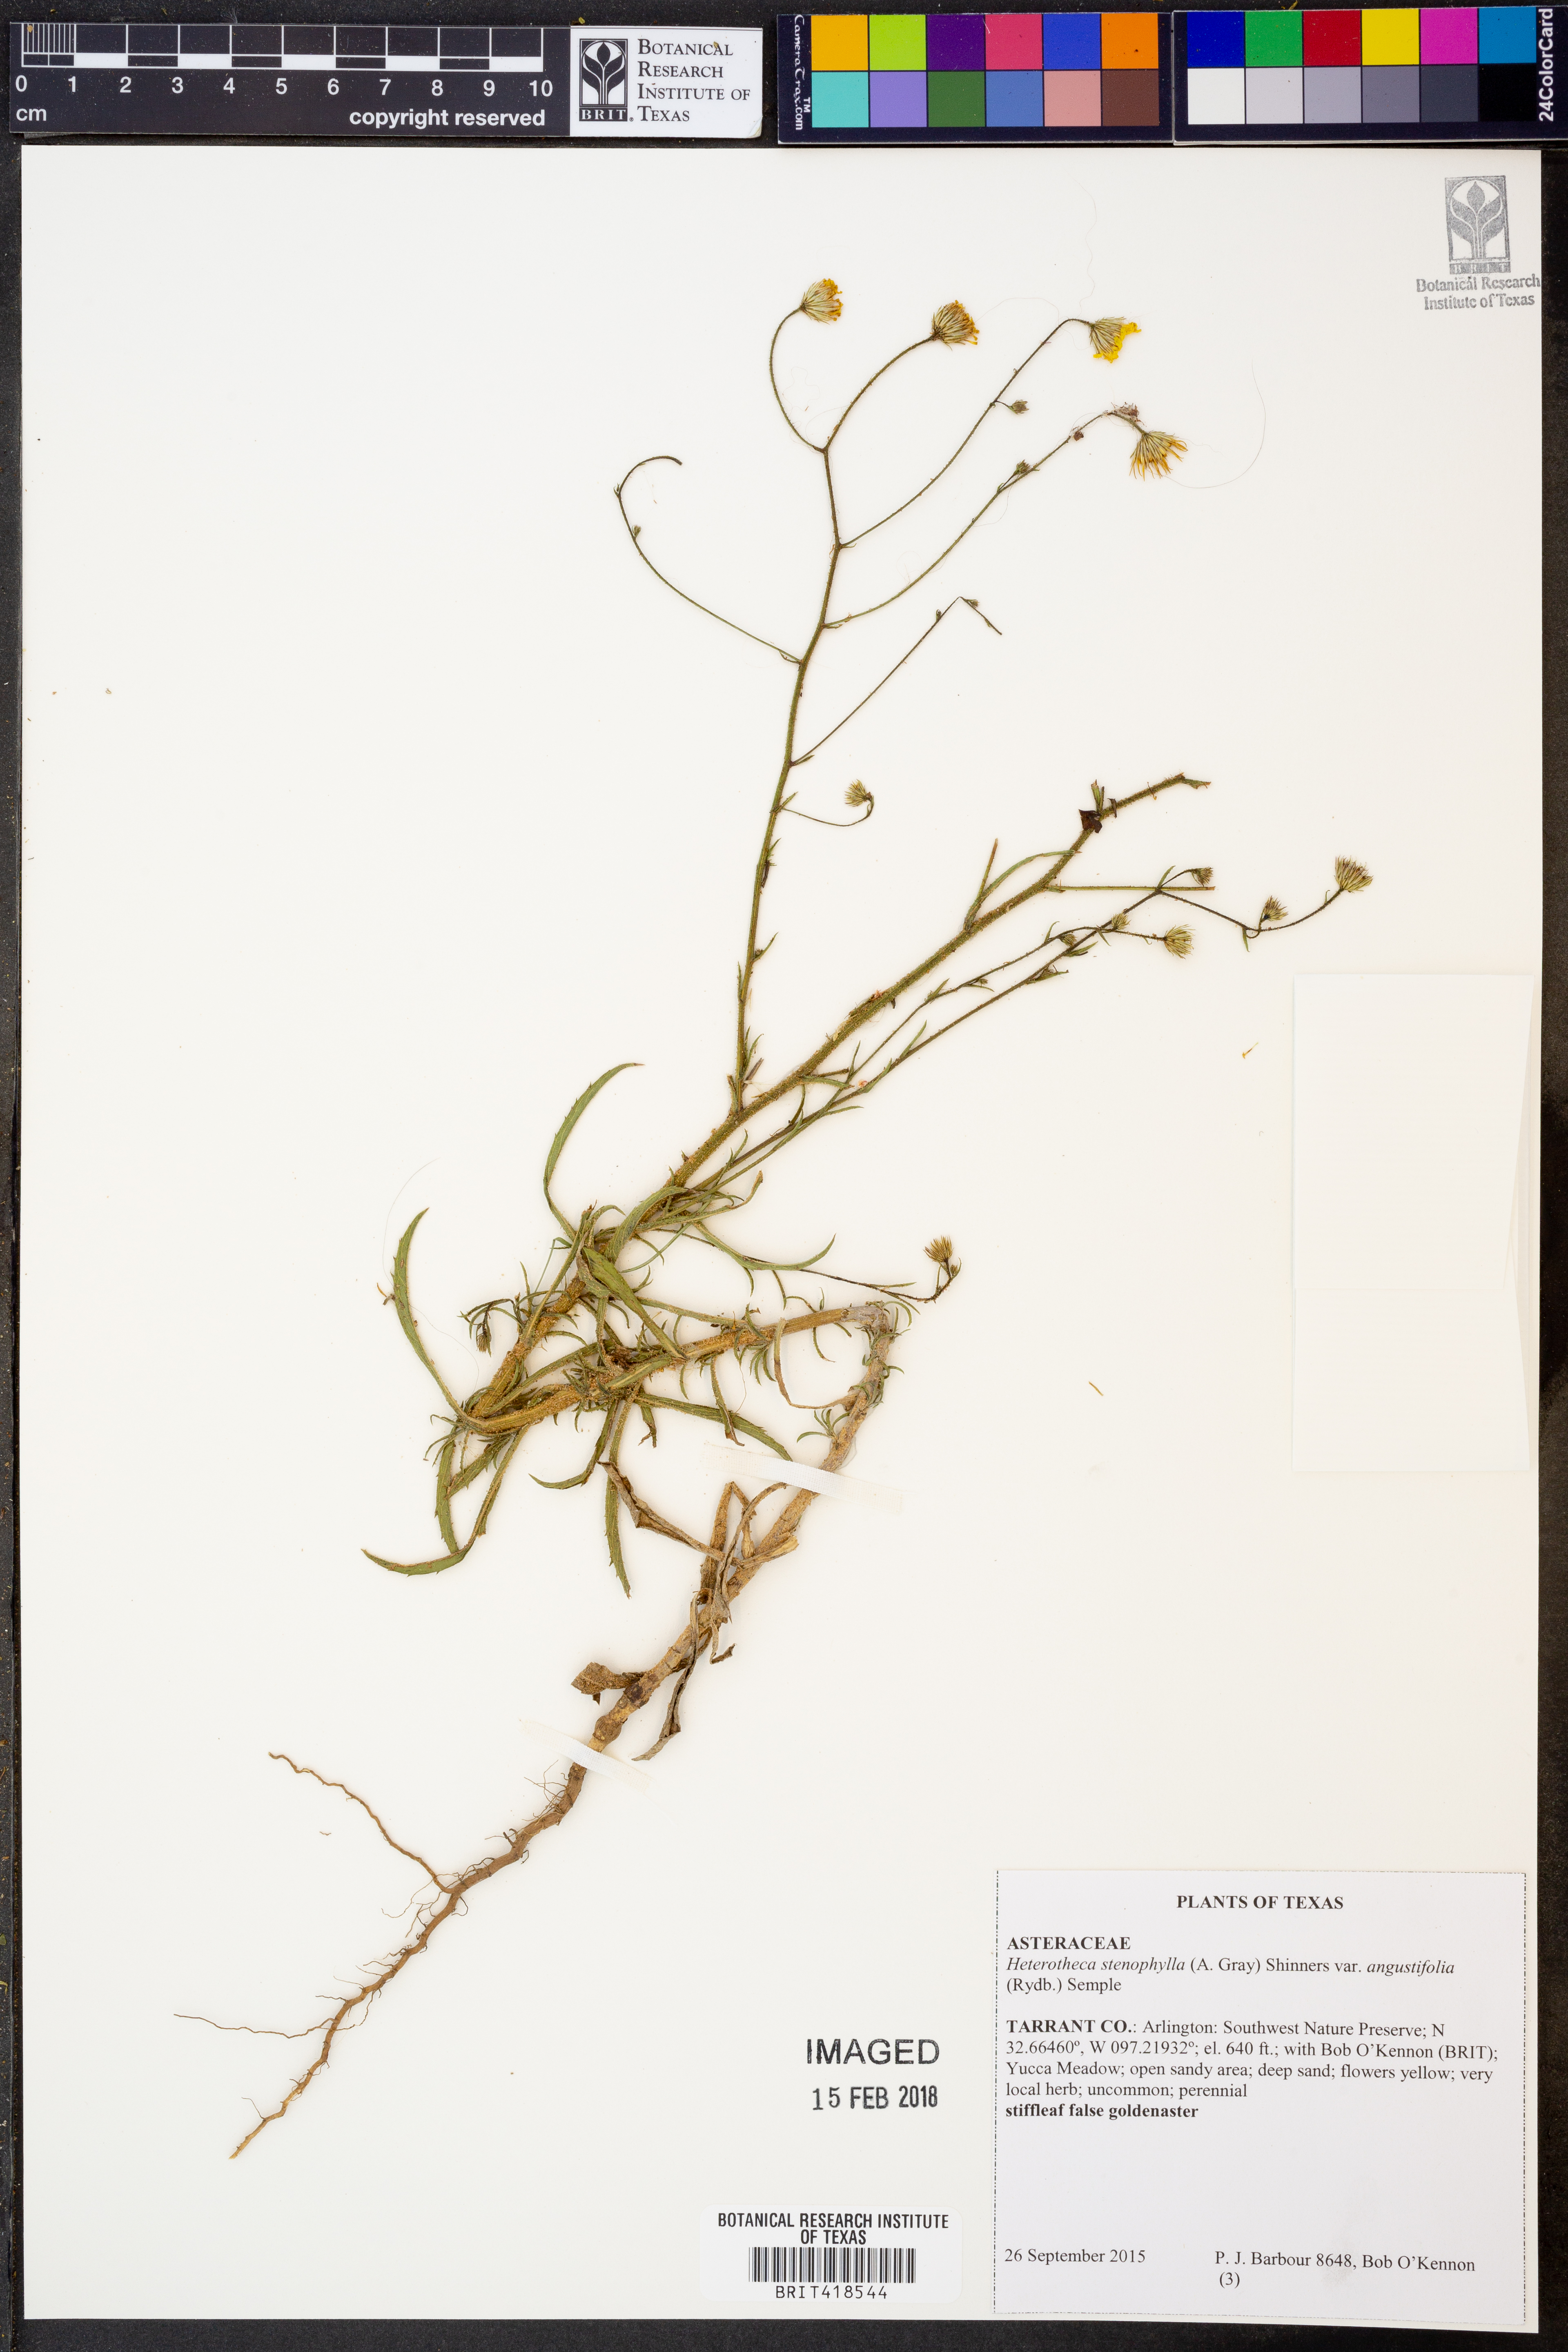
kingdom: Plantae
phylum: Tracheophyta
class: Magnoliopsida
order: Asterales
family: Asteraceae
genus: Heterotheca
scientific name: Heterotheca angustifolia
